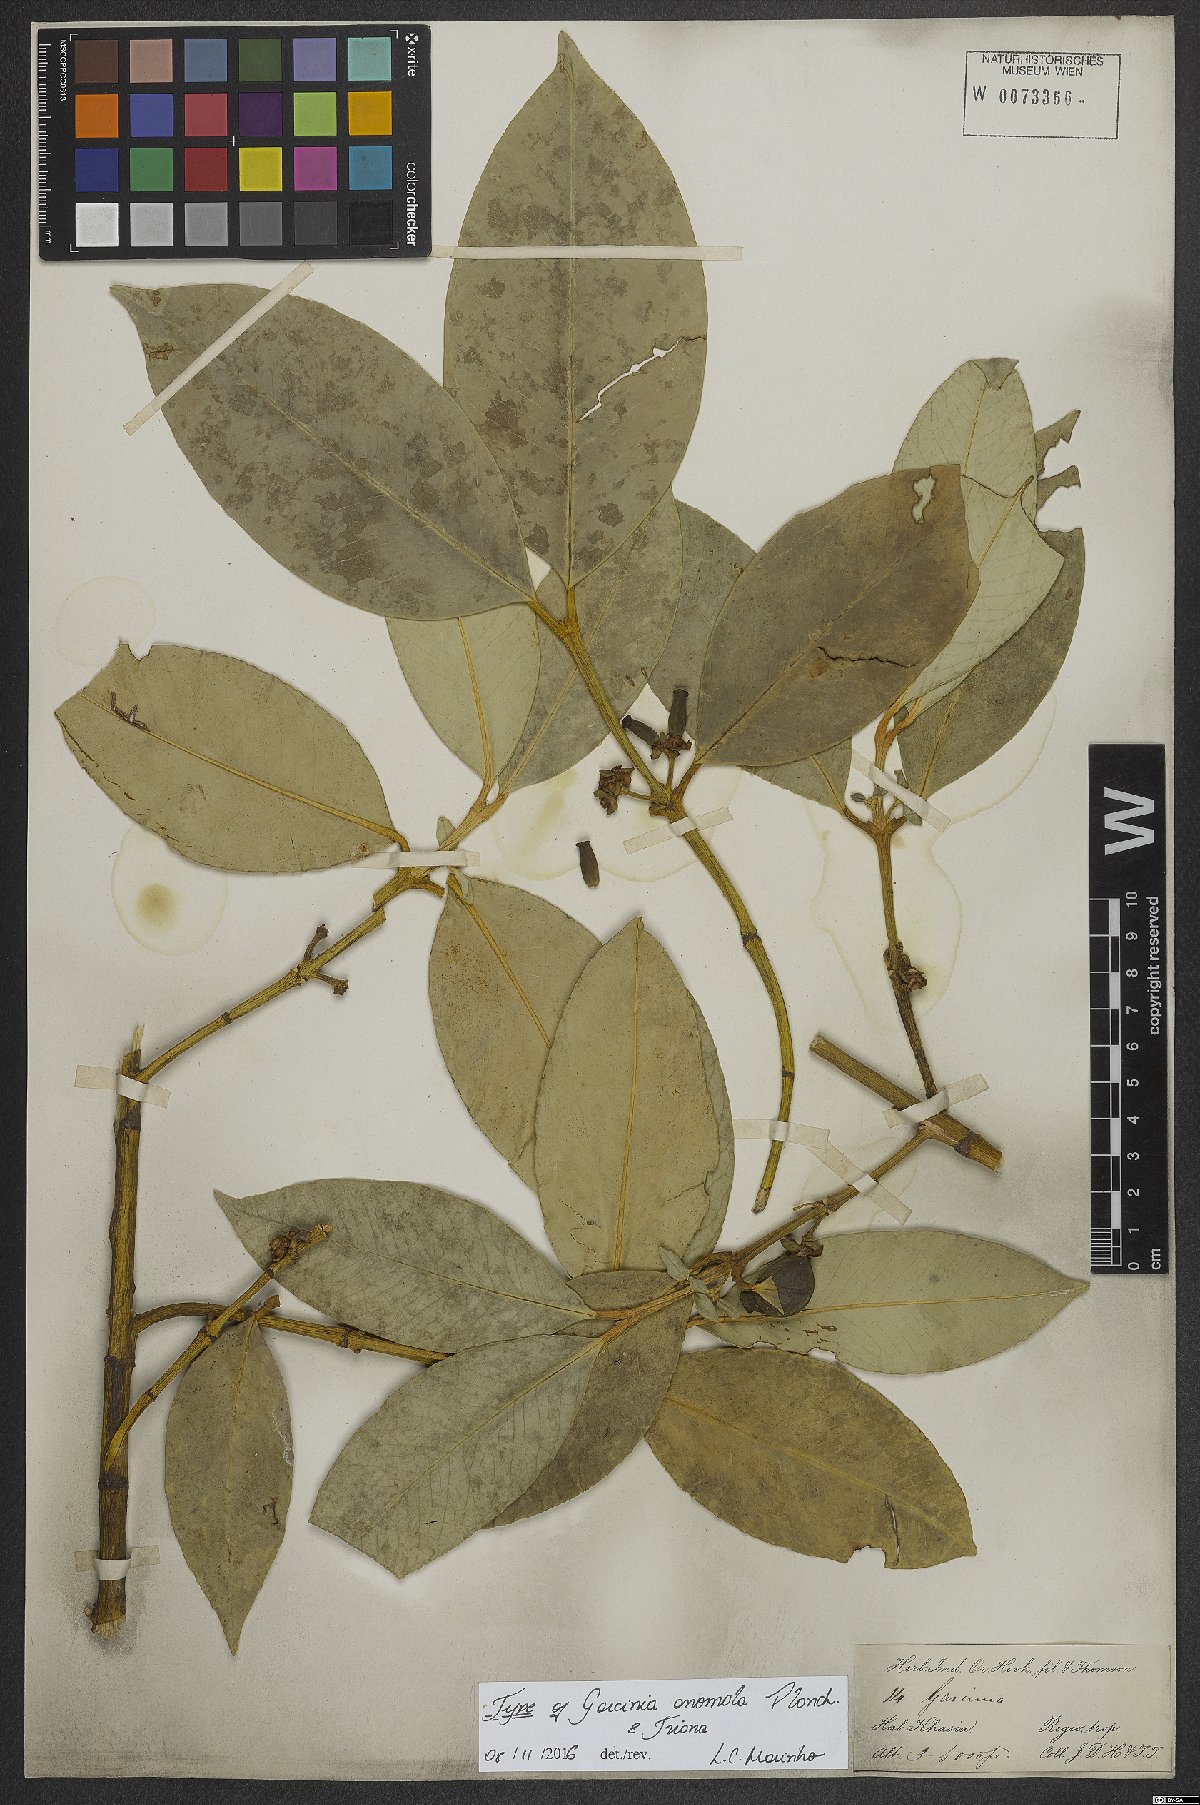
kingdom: Plantae
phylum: Tracheophyta
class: Magnoliopsida
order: Malpighiales
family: Clusiaceae
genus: Garcinia
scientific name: Garcinia anomala
